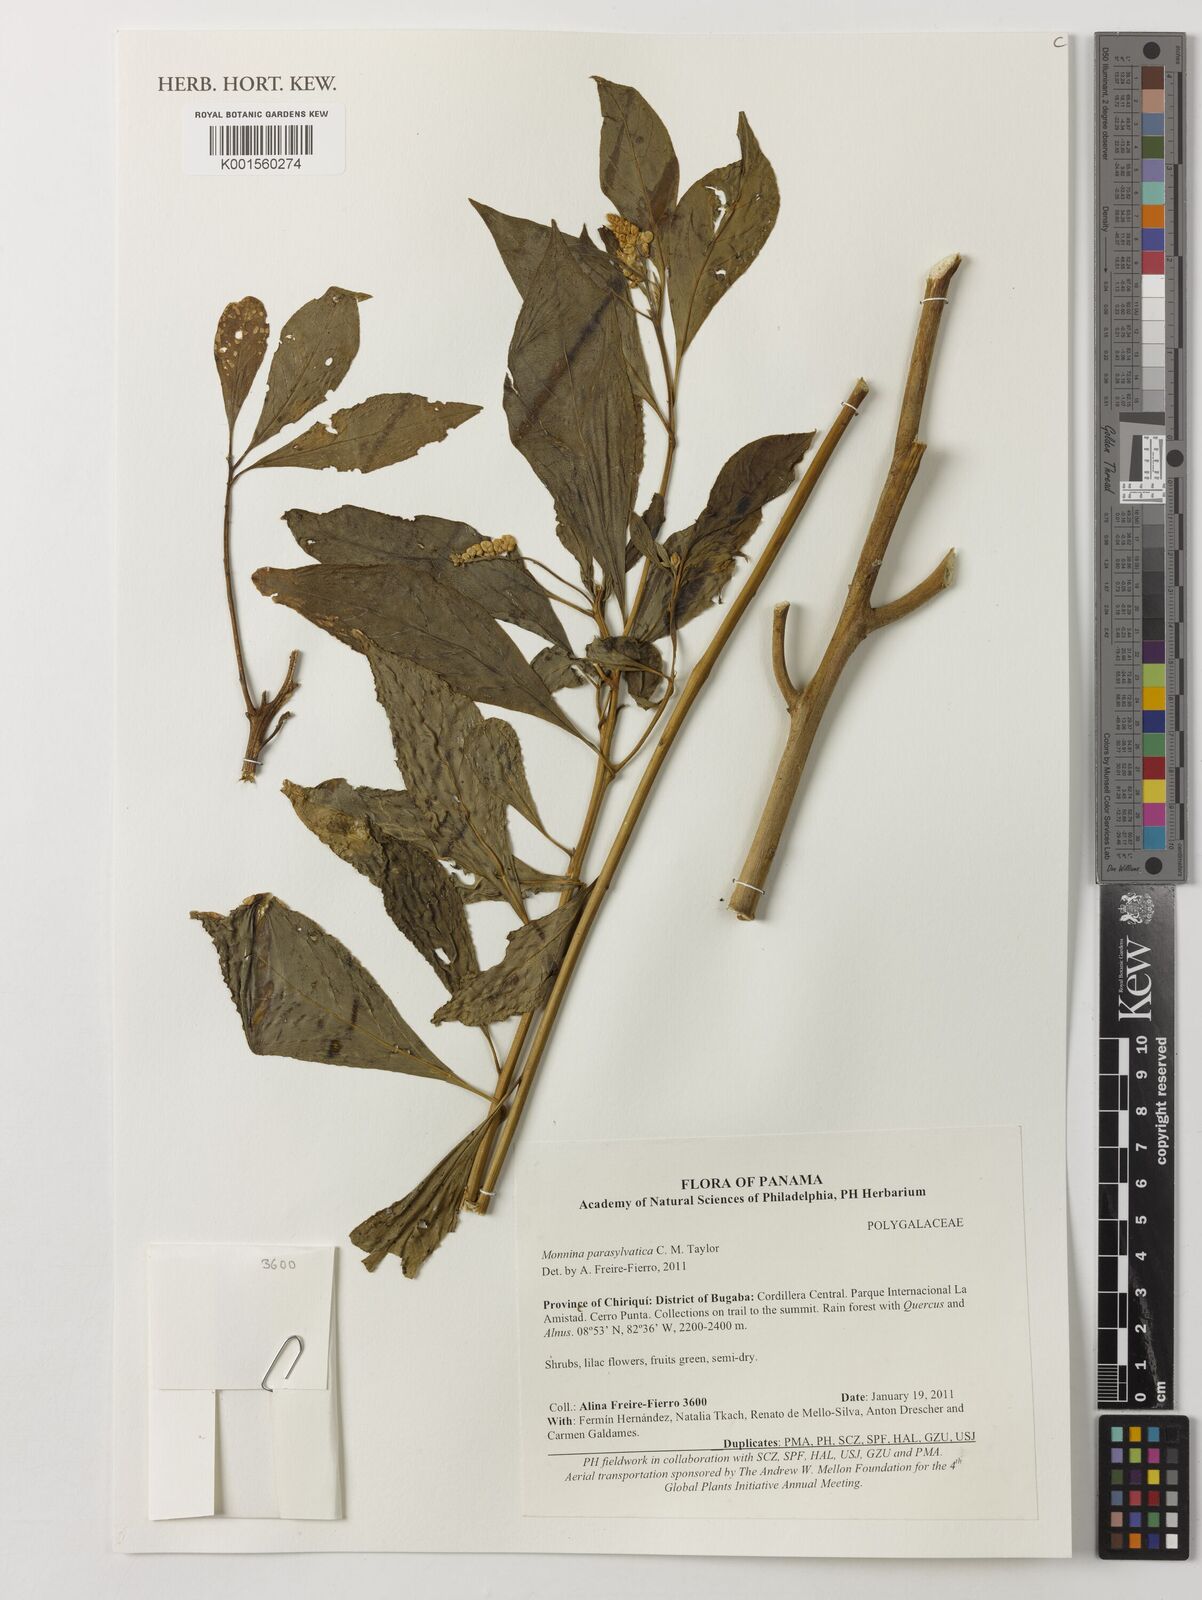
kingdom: Plantae
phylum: Tracheophyta
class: Magnoliopsida
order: Fabales
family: Polygalaceae
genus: Monnina
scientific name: Monnina parasylvatica
